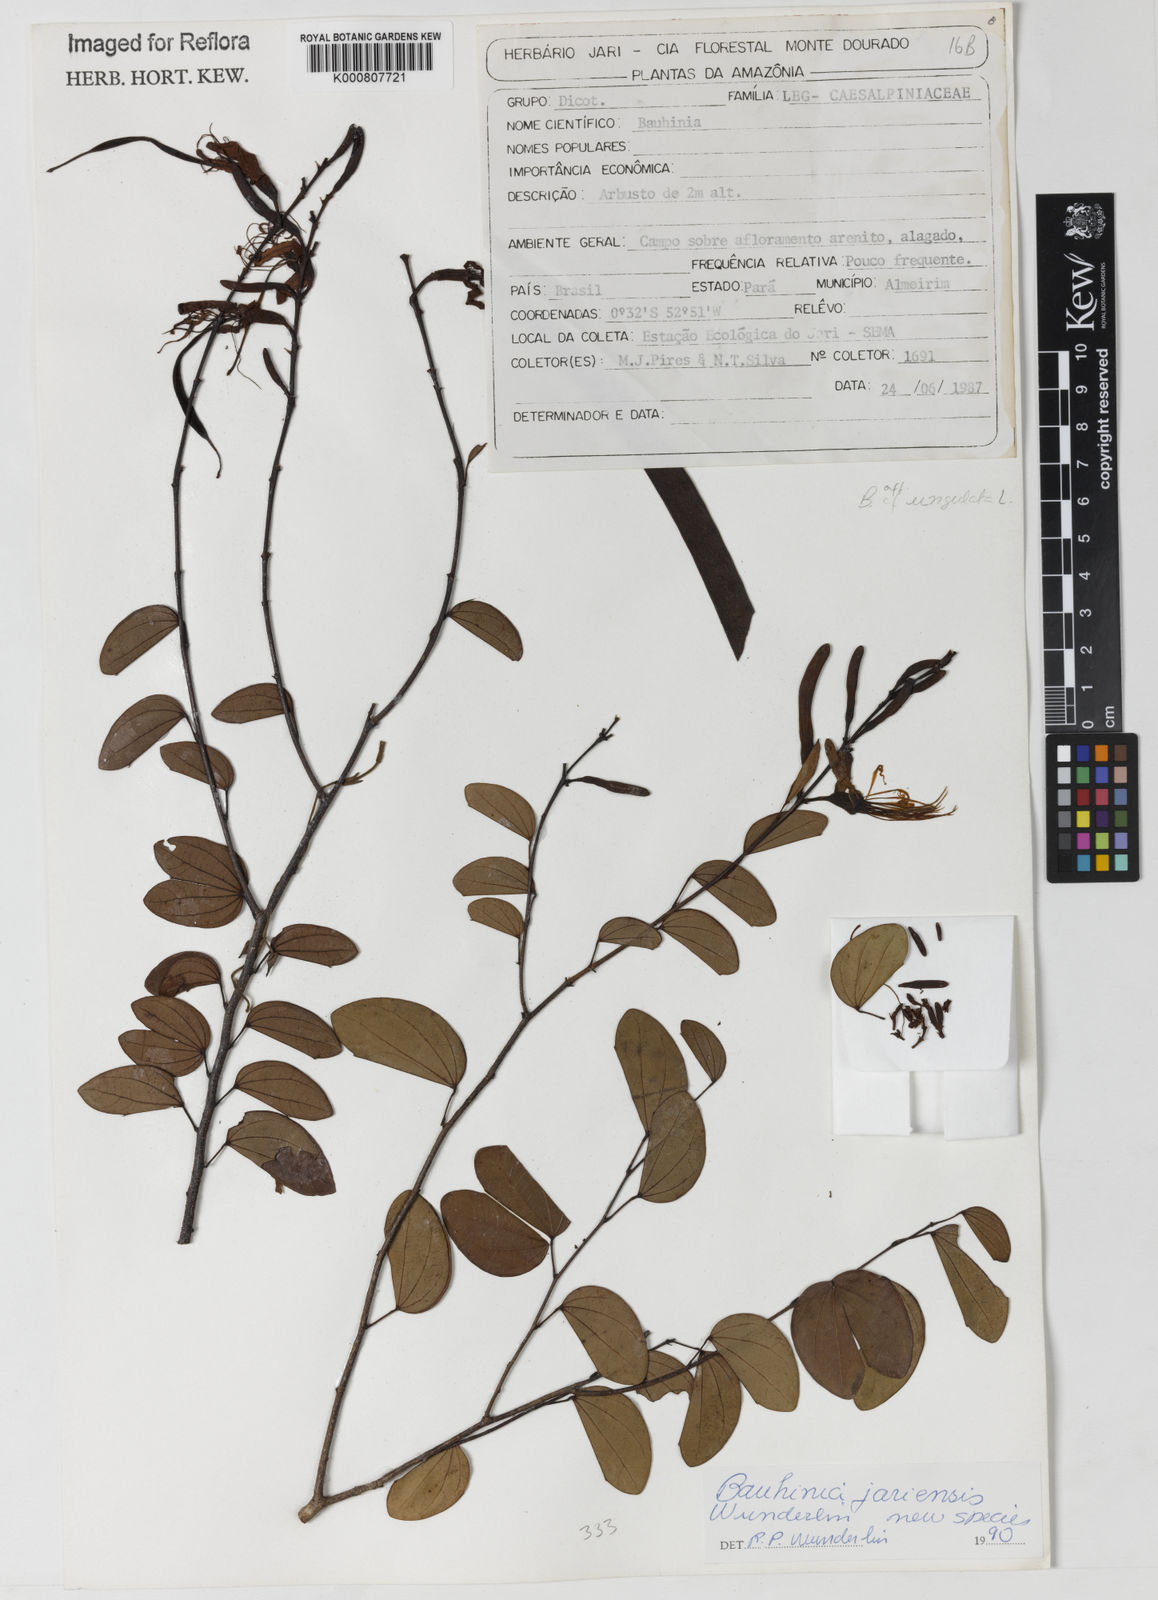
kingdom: Plantae
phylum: Tracheophyta
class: Magnoliopsida
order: Fabales
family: Fabaceae
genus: Bauhinia
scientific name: Bauhinia
